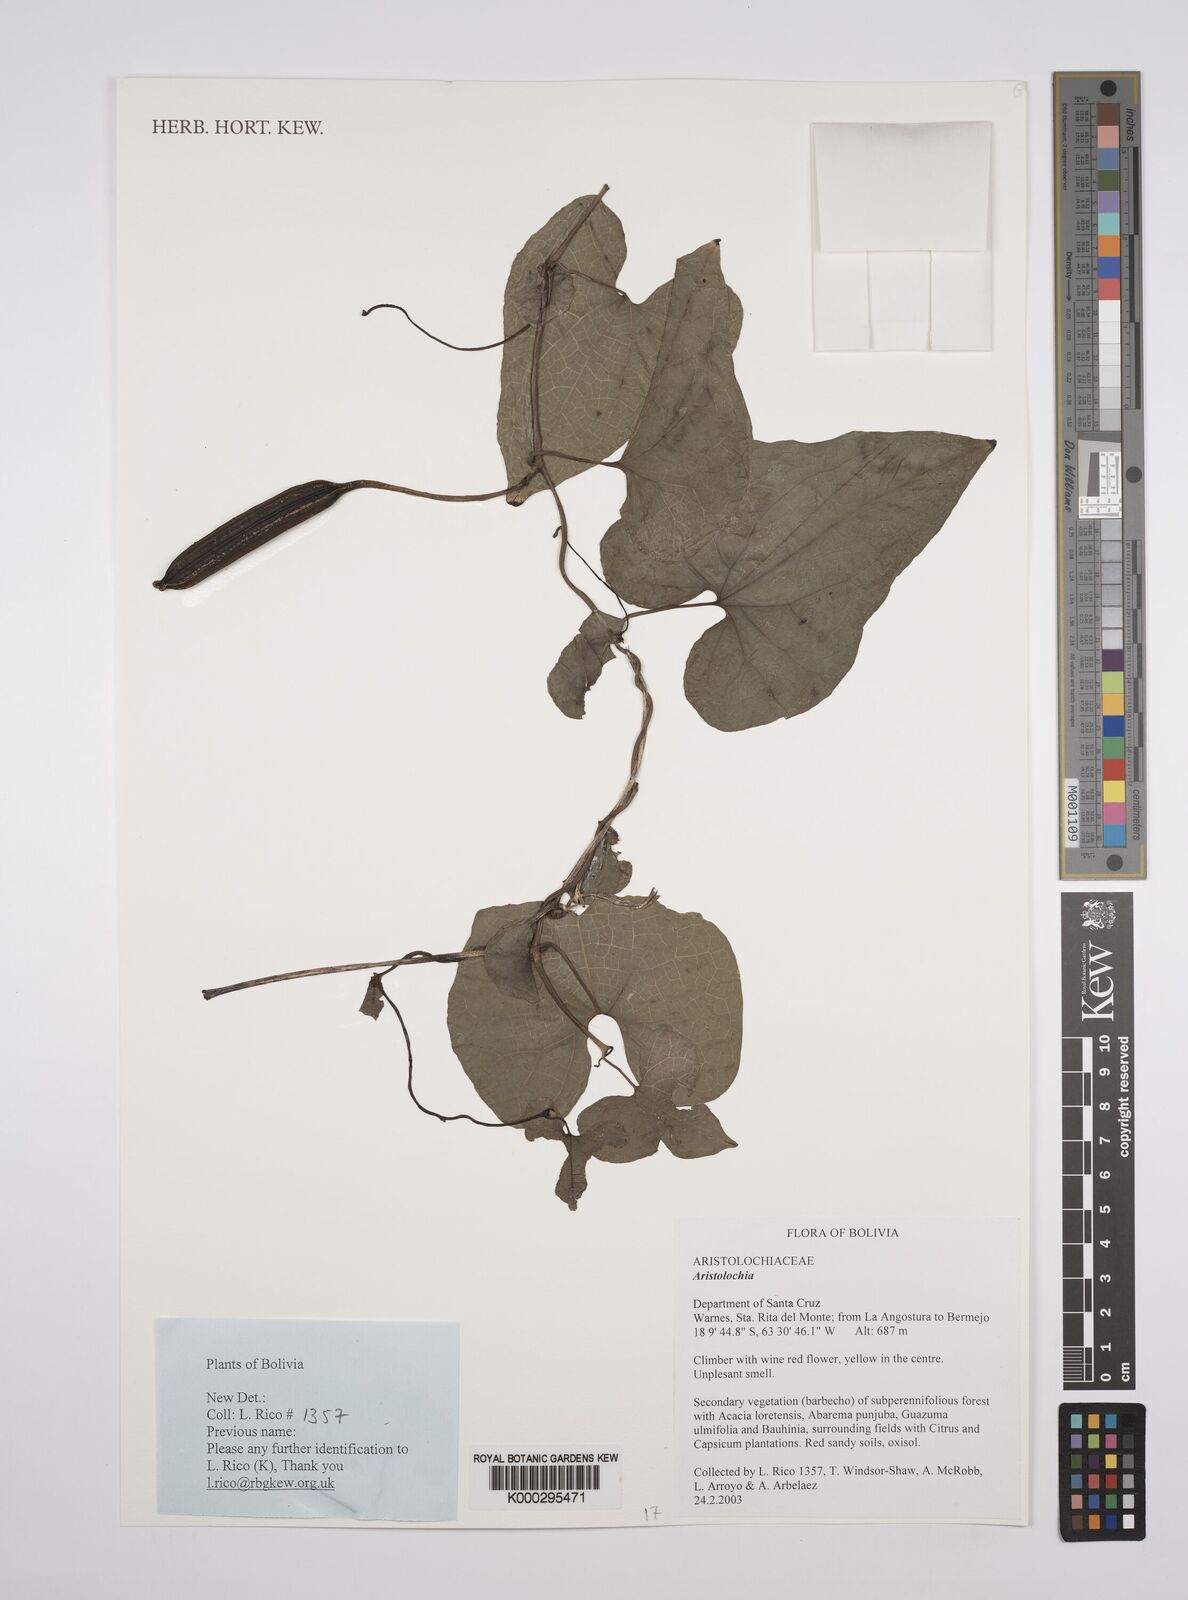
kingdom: Plantae
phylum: Tracheophyta
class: Magnoliopsida
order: Piperales
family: Aristolochiaceae
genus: Aristolochia
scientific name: Aristolochia odoratissima
